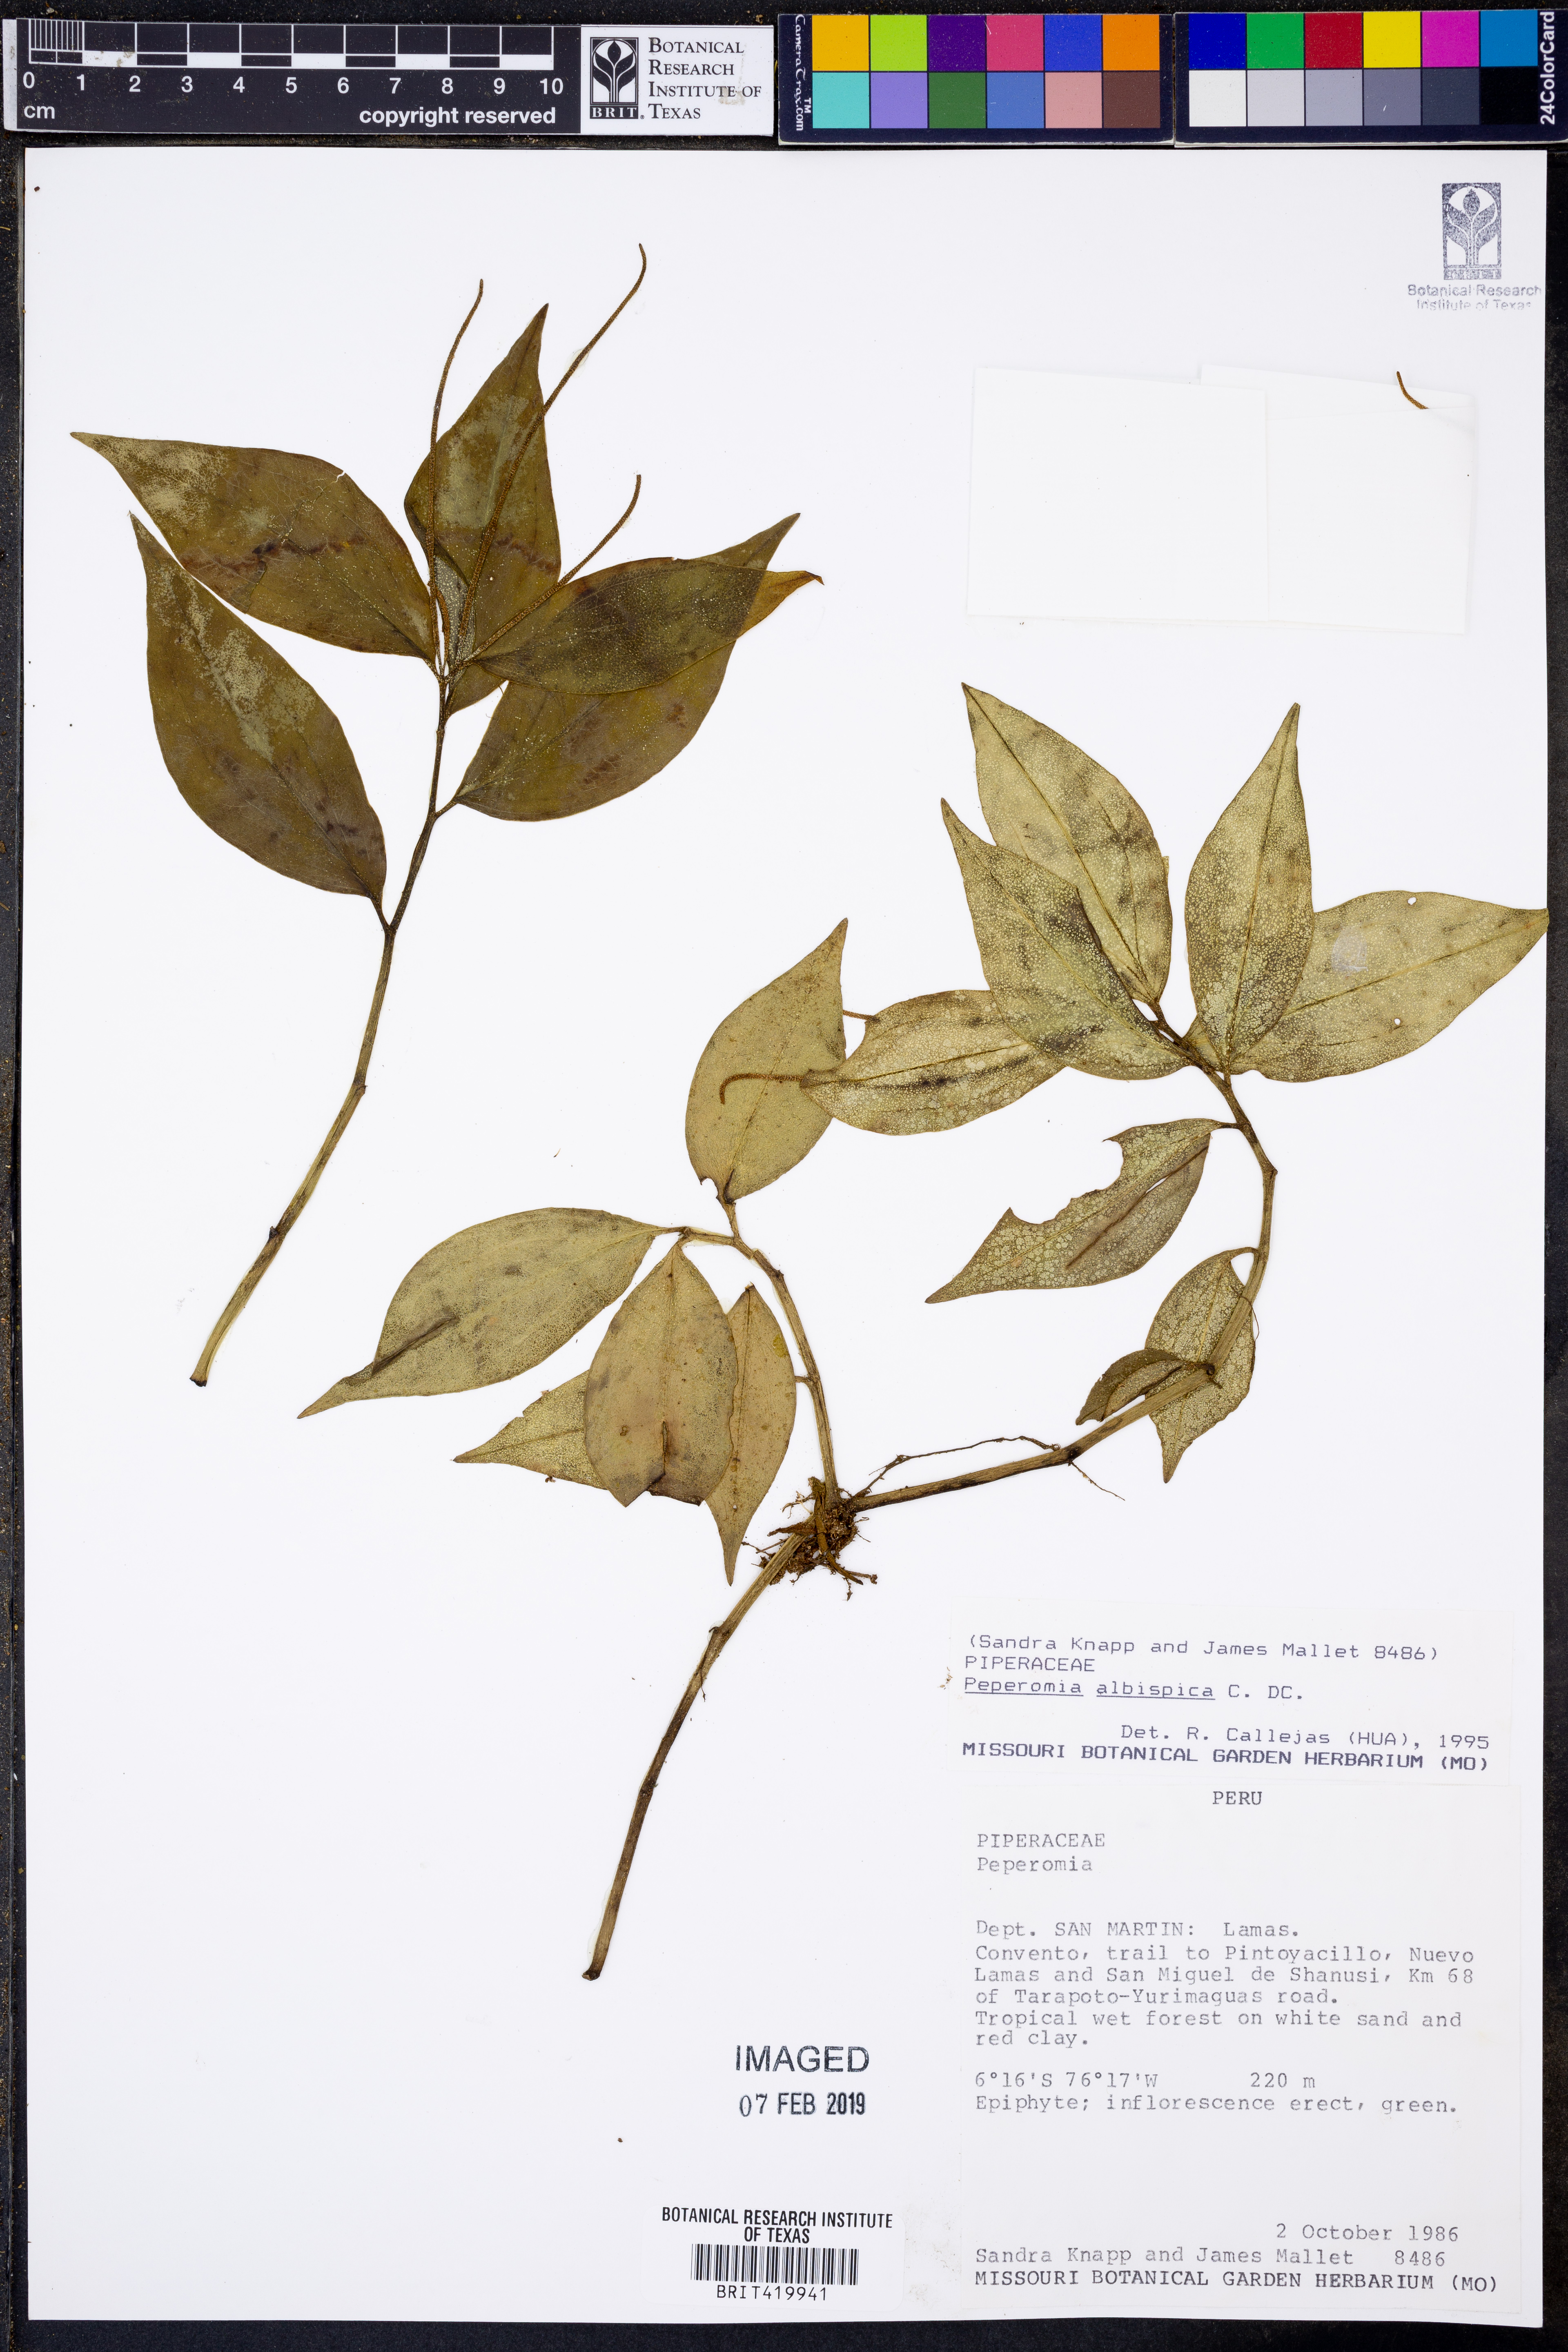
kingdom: Plantae
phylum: Tracheophyta
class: Magnoliopsida
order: Piperales
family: Piperaceae
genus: Peperomia
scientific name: Peperomia chimboana
